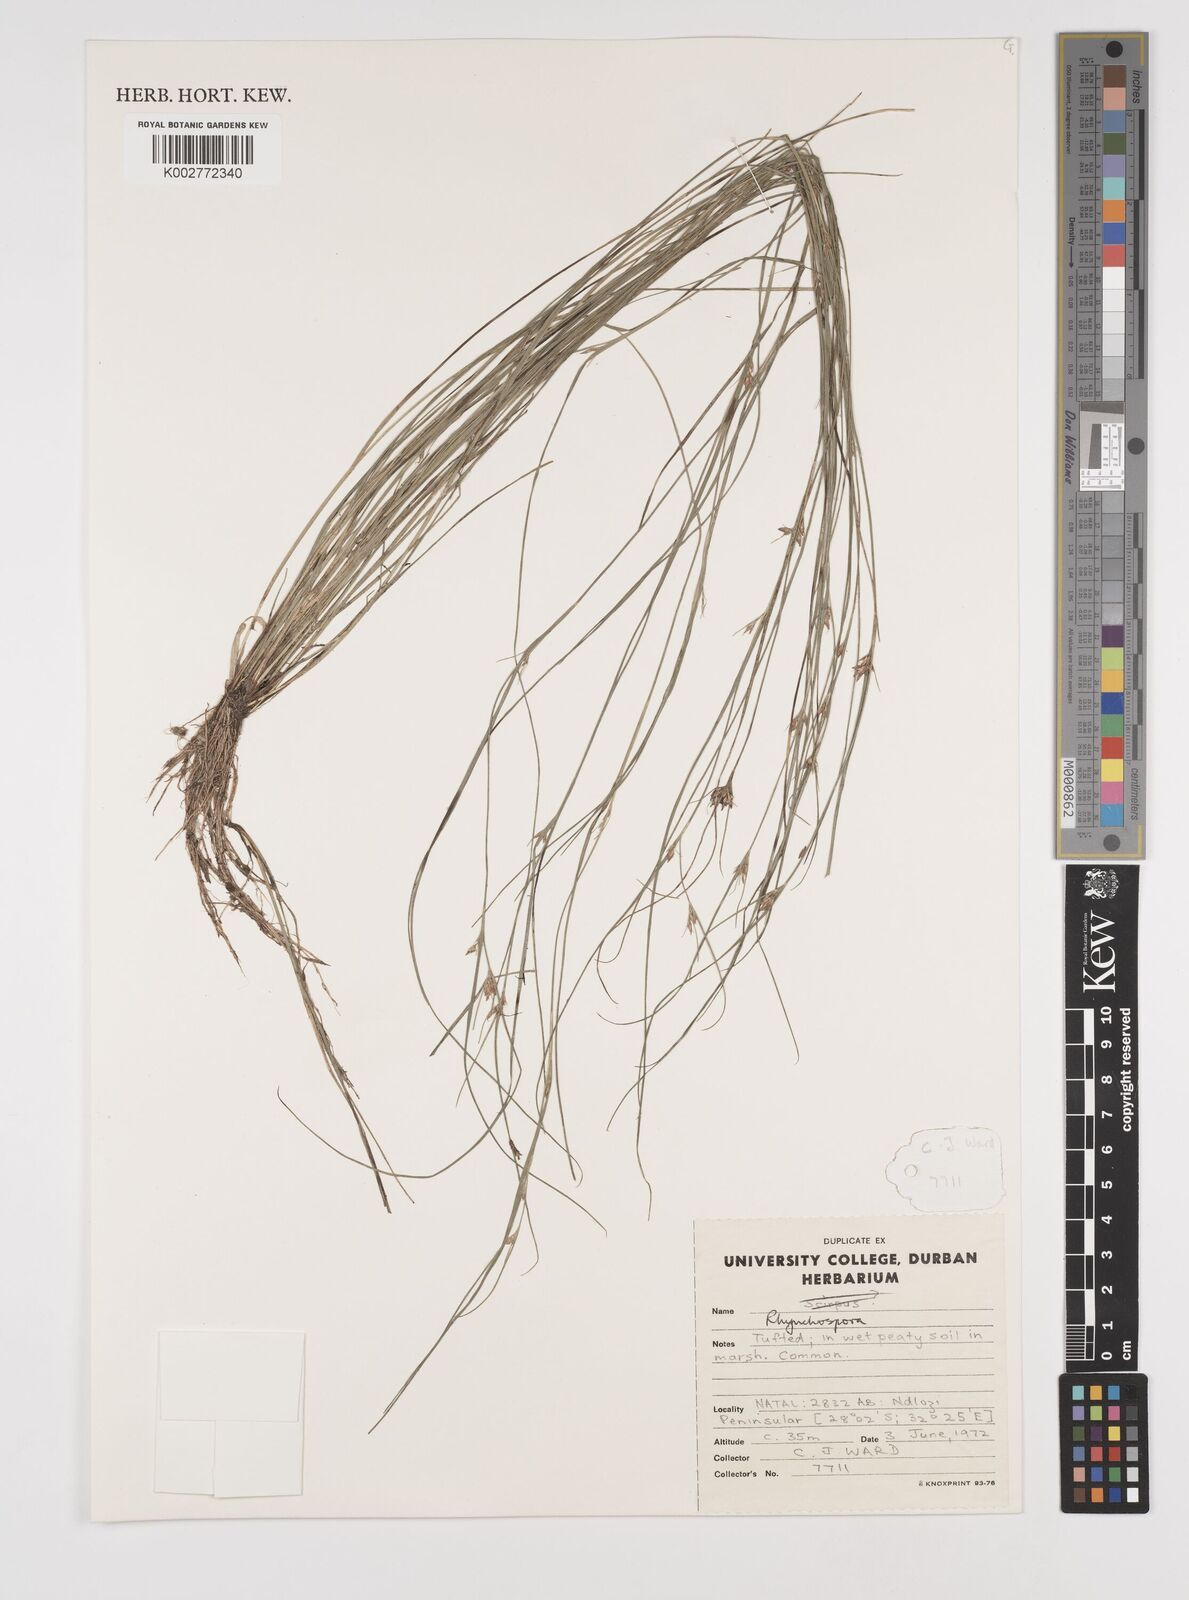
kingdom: Plantae
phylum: Tracheophyta
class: Liliopsida
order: Poales
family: Cyperaceae
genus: Rhynchospora
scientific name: Rhynchospora
